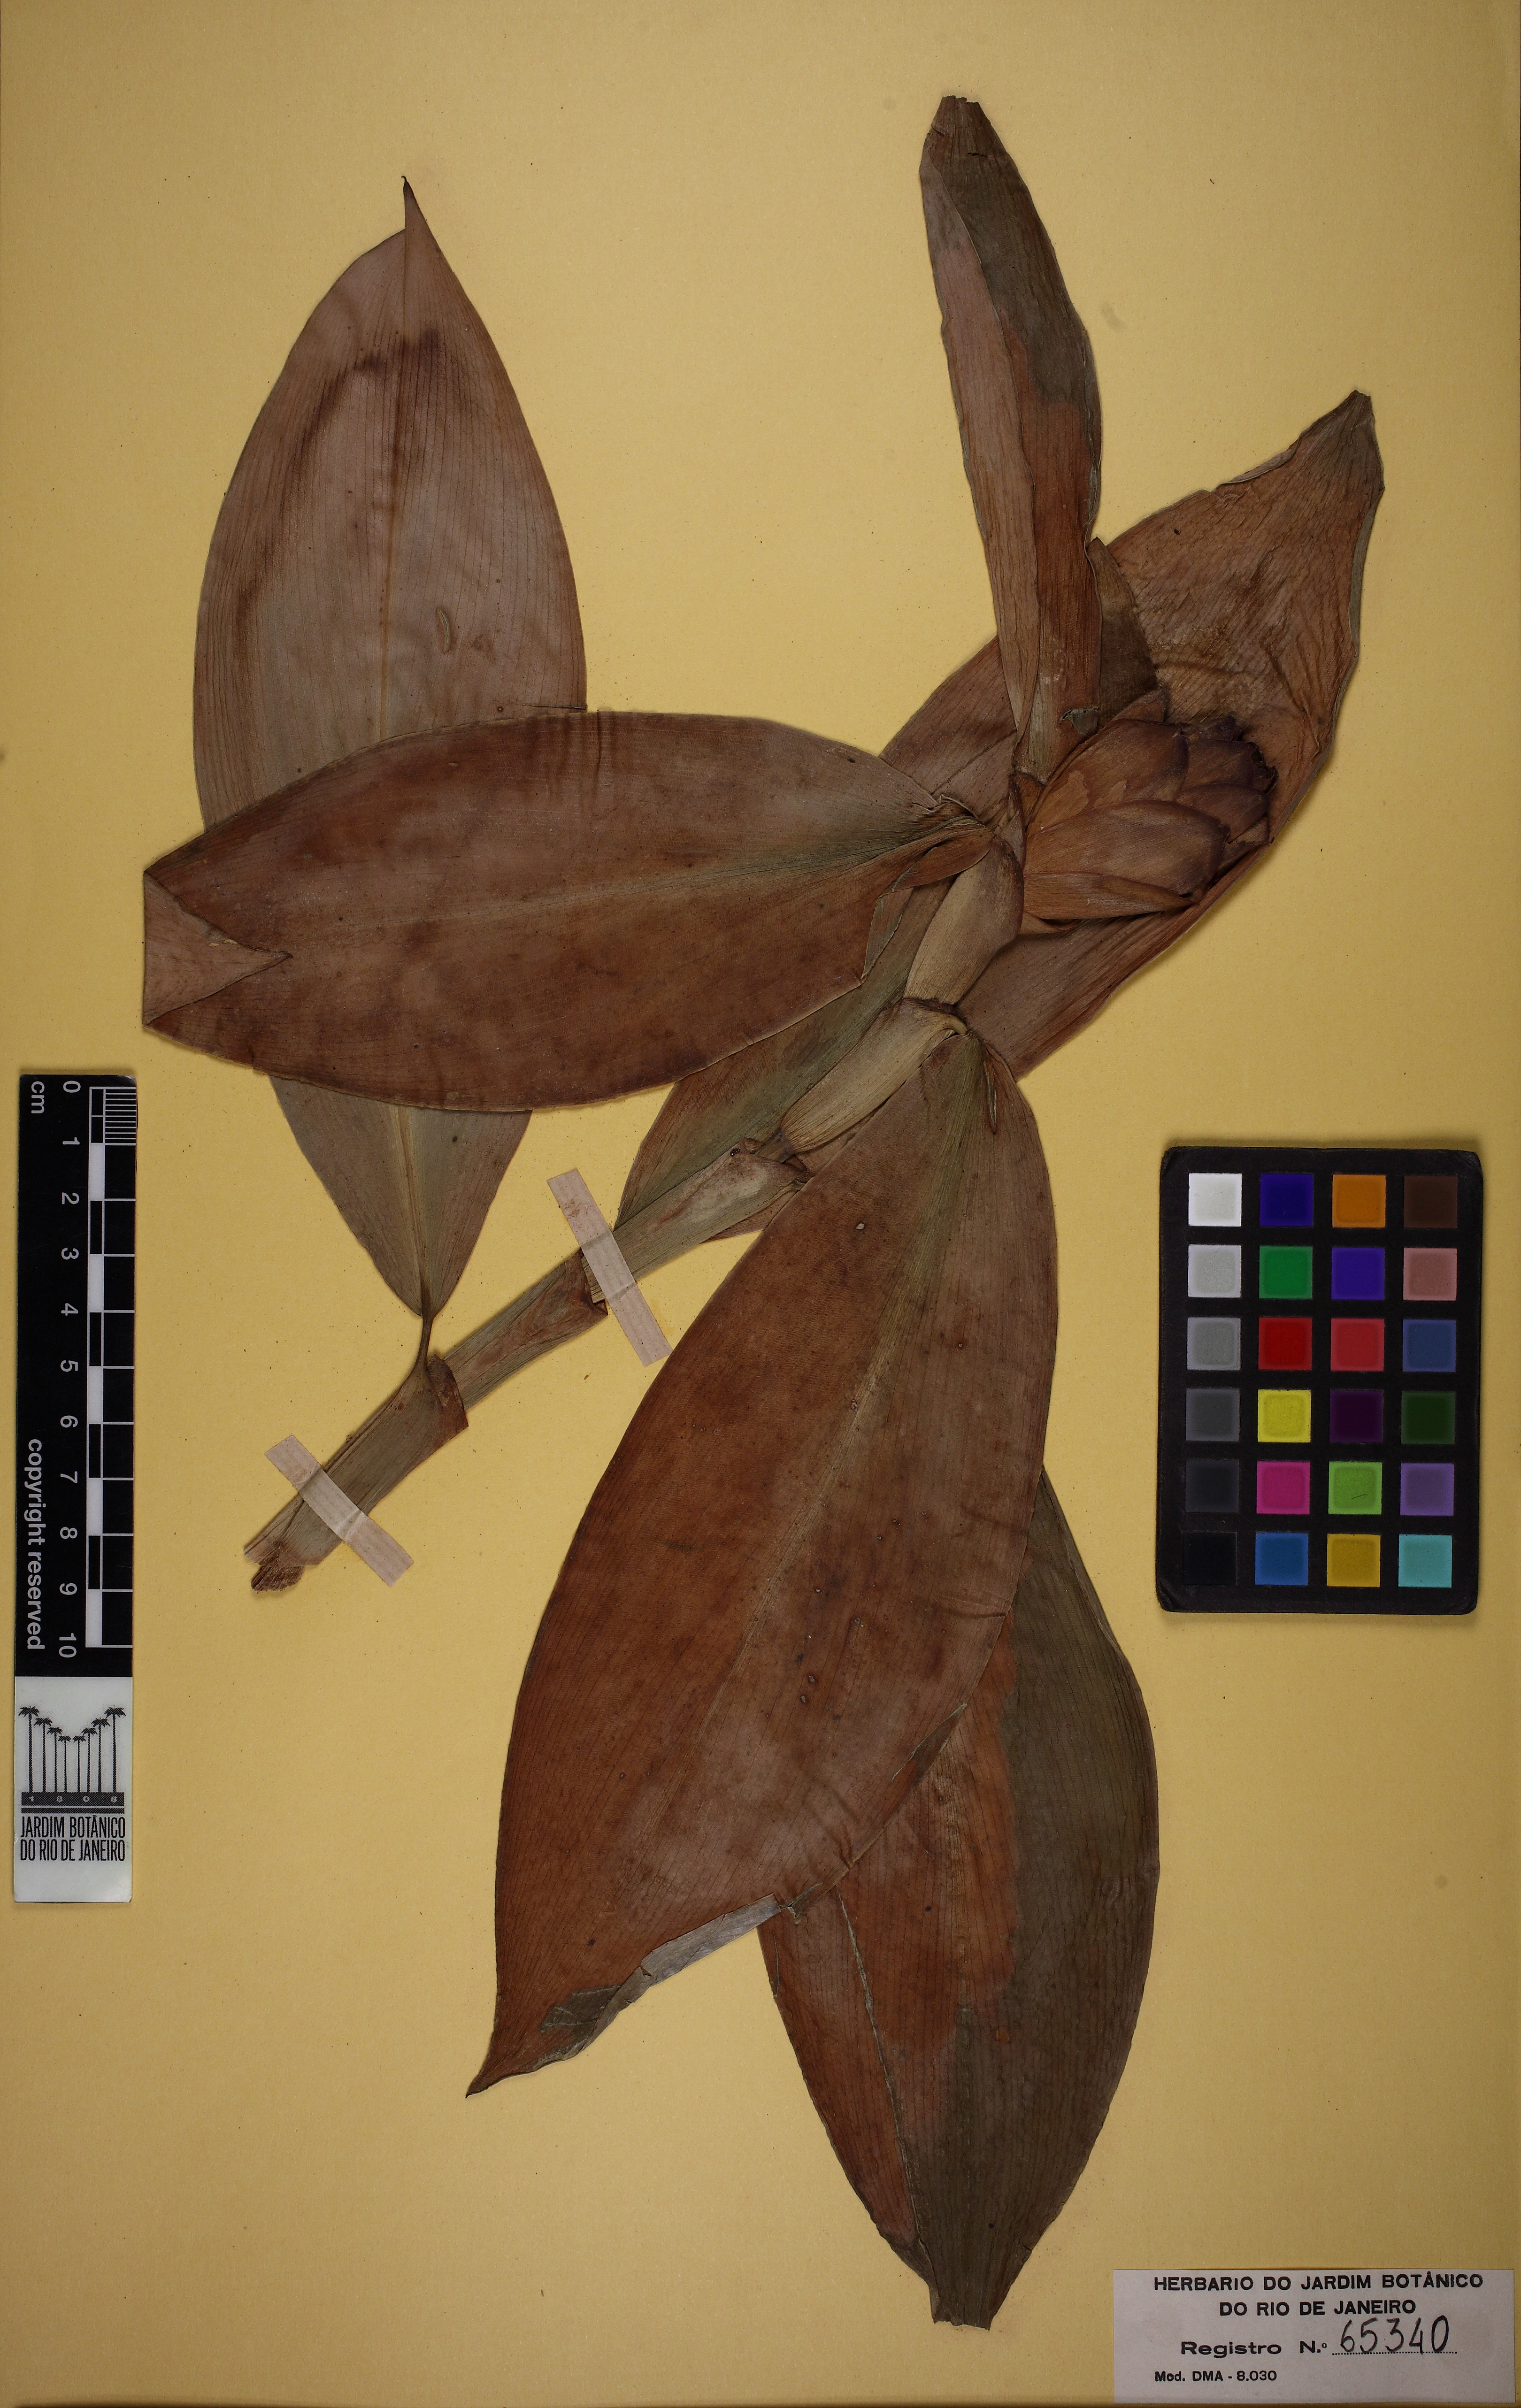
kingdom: Plantae
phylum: Tracheophyta
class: Liliopsida
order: Zingiberales
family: Costaceae
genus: Costus
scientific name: Costus spiralis
